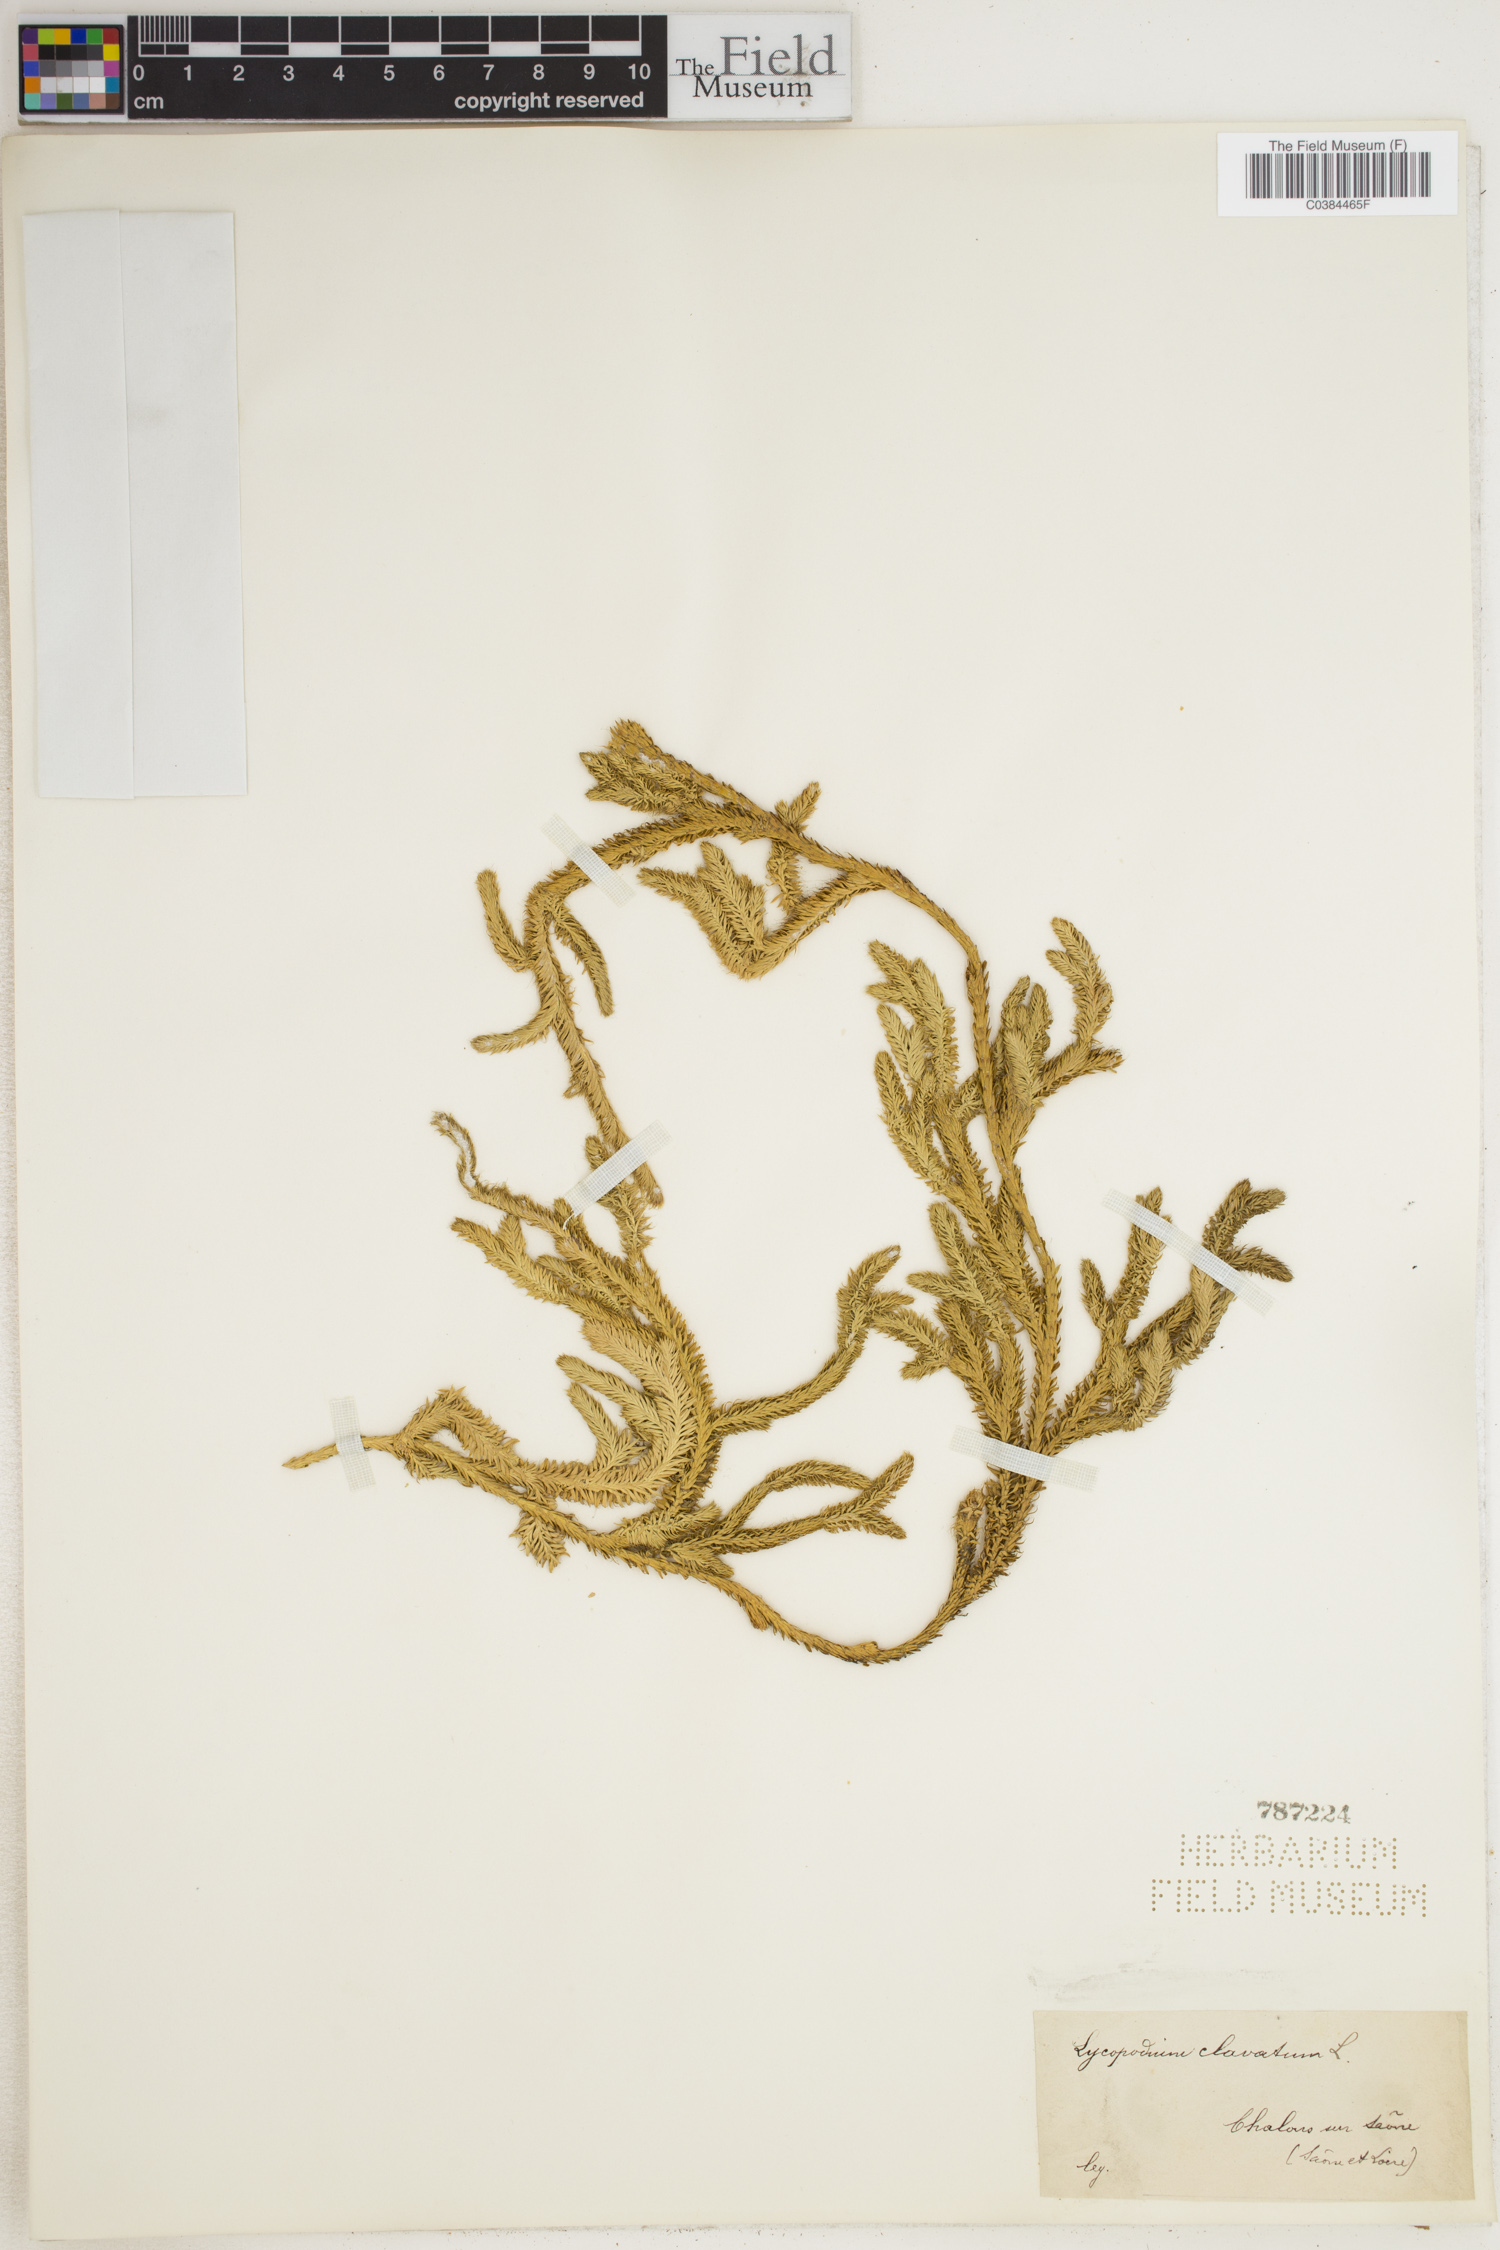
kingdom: Plantae
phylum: Tracheophyta
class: Lycopodiopsida
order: Lycopodiales
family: Lycopodiaceae
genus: Lycopodium
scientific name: Lycopodium clavatum
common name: Stag's-horn clubmoss
